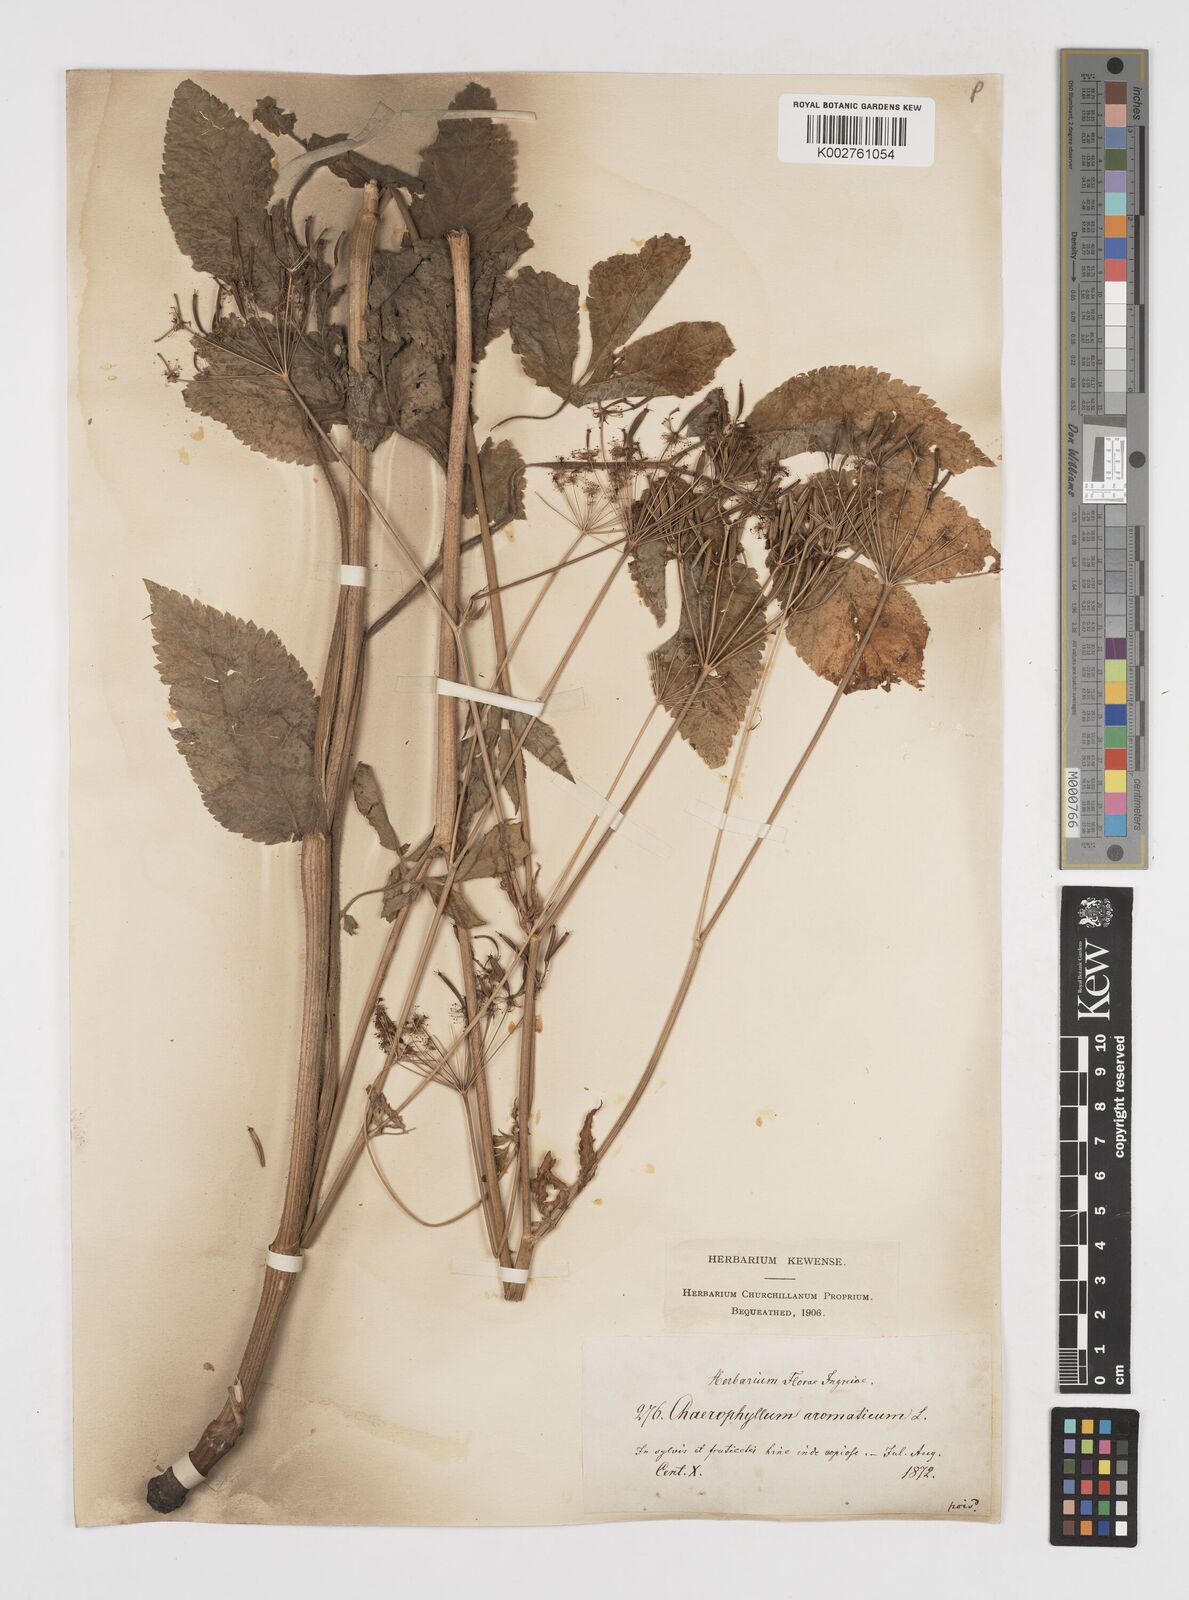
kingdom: Plantae
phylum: Tracheophyta
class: Magnoliopsida
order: Apiales
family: Apiaceae
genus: Chaerophyllum
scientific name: Chaerophyllum aromaticum
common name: Broadleaf chervil
